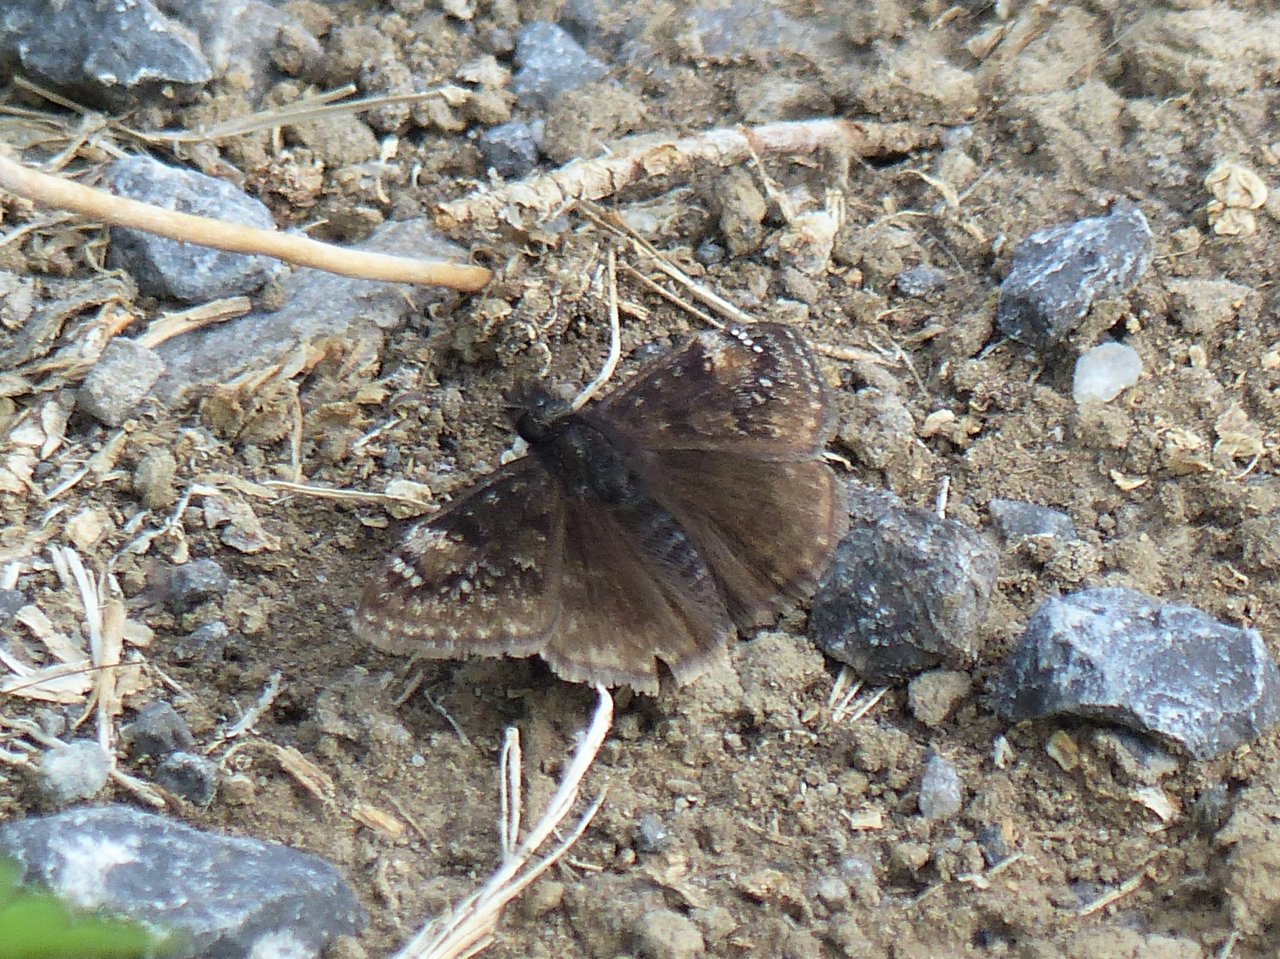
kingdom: Animalia
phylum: Arthropoda
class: Insecta
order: Lepidoptera
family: Hesperiidae
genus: Gesta
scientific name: Gesta
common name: Wild Indigo Duskywing
